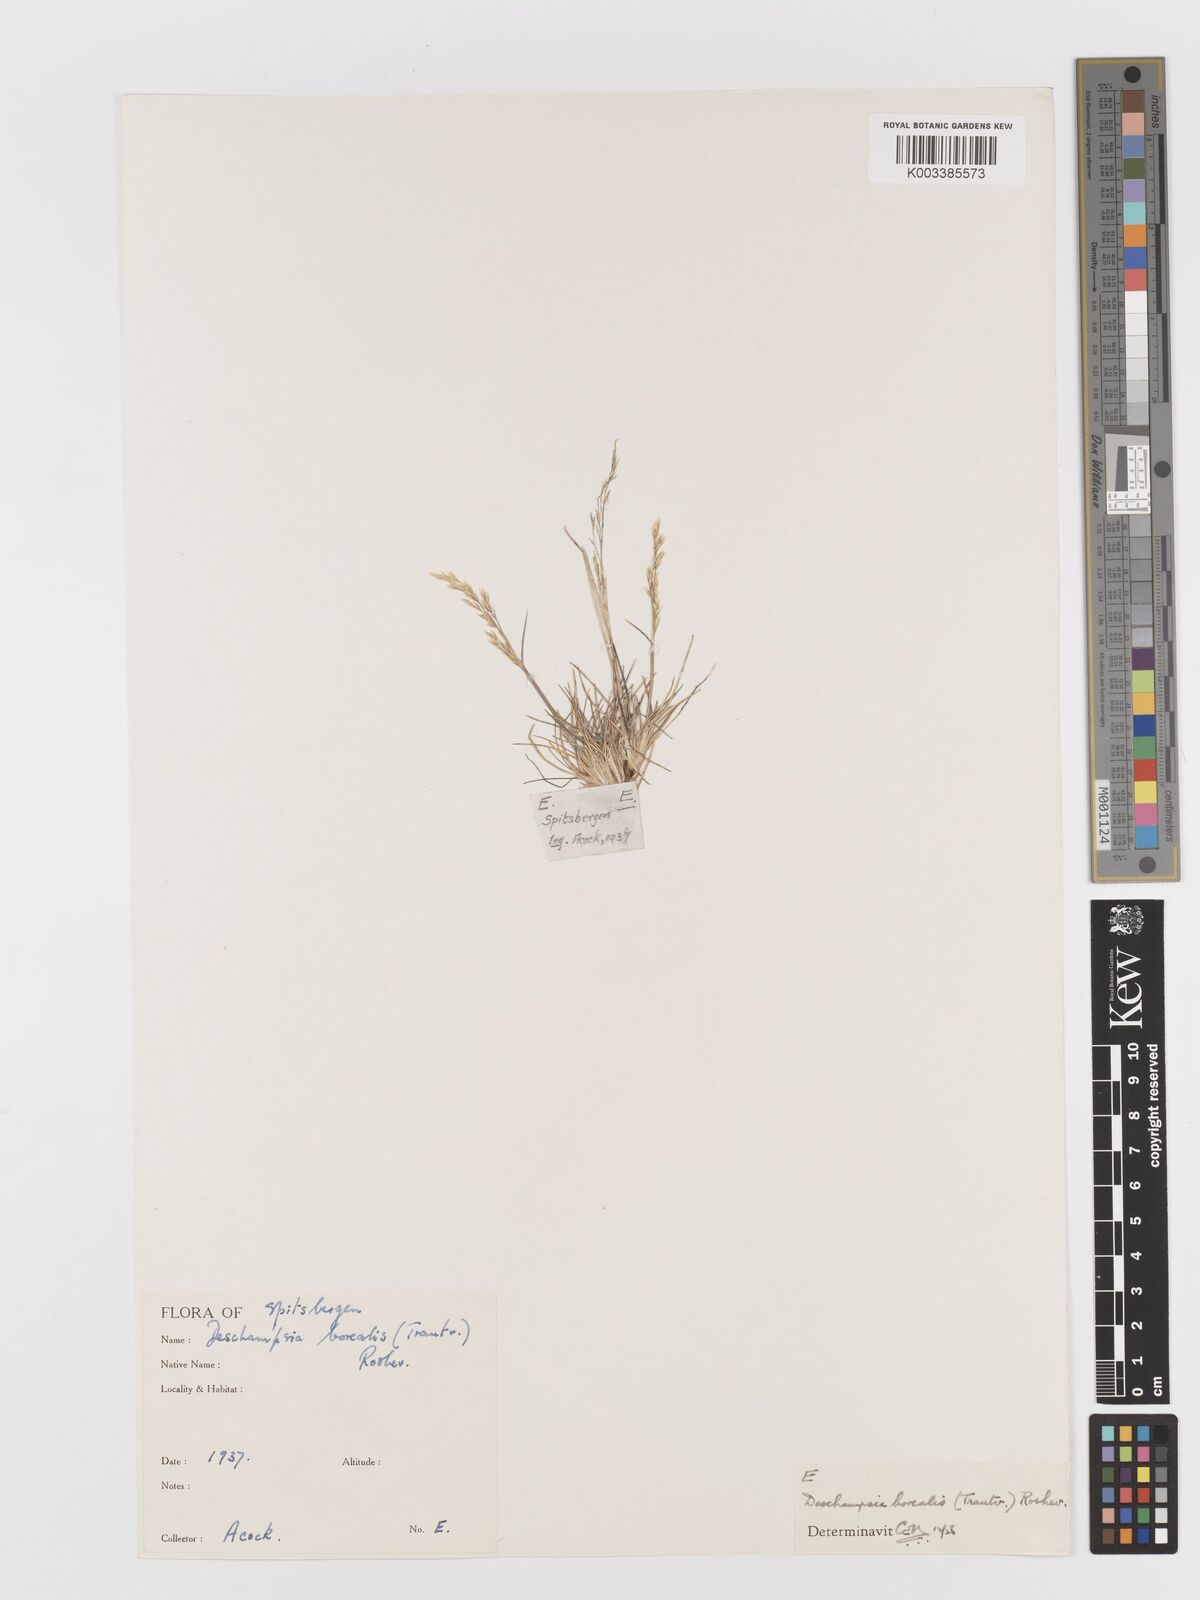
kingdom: Plantae
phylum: Tracheophyta
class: Liliopsida
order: Poales
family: Poaceae
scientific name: Poaceae
